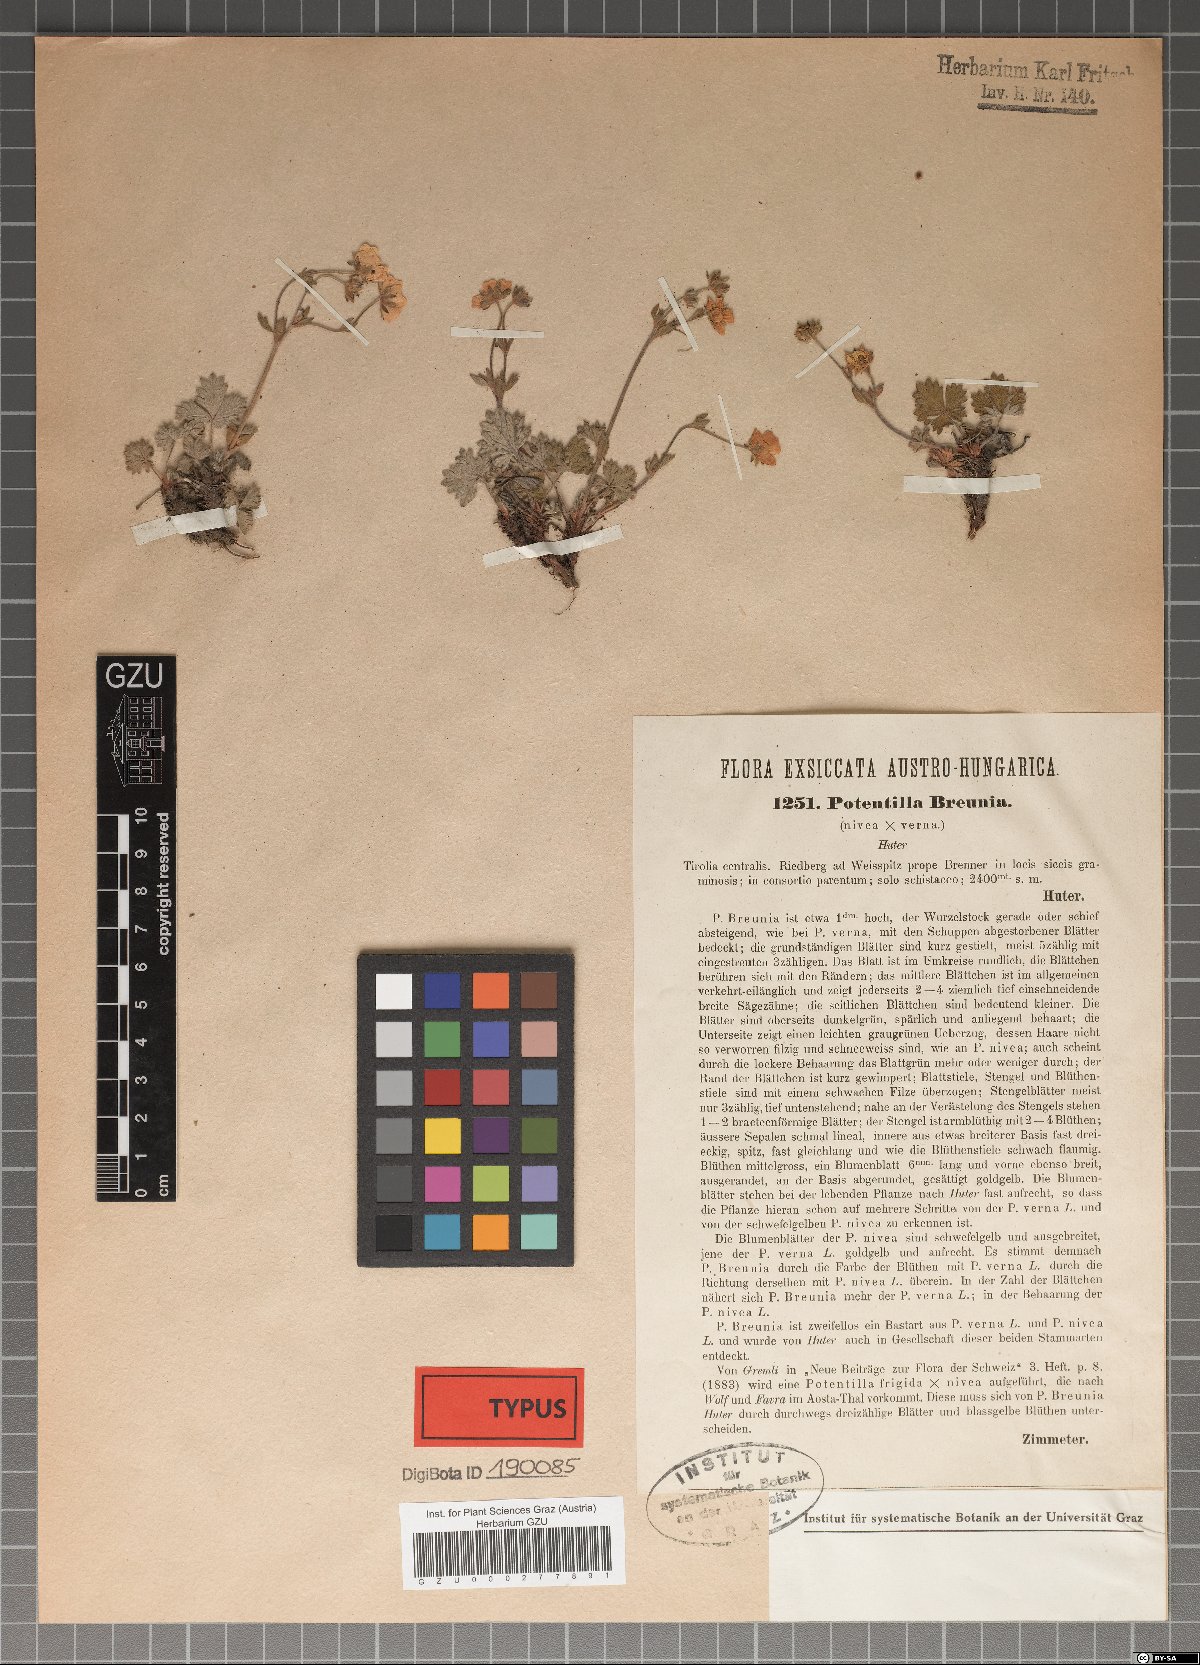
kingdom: Plantae
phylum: Tracheophyta
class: Magnoliopsida
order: Rosales
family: Rosaceae
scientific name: Rosaceae
